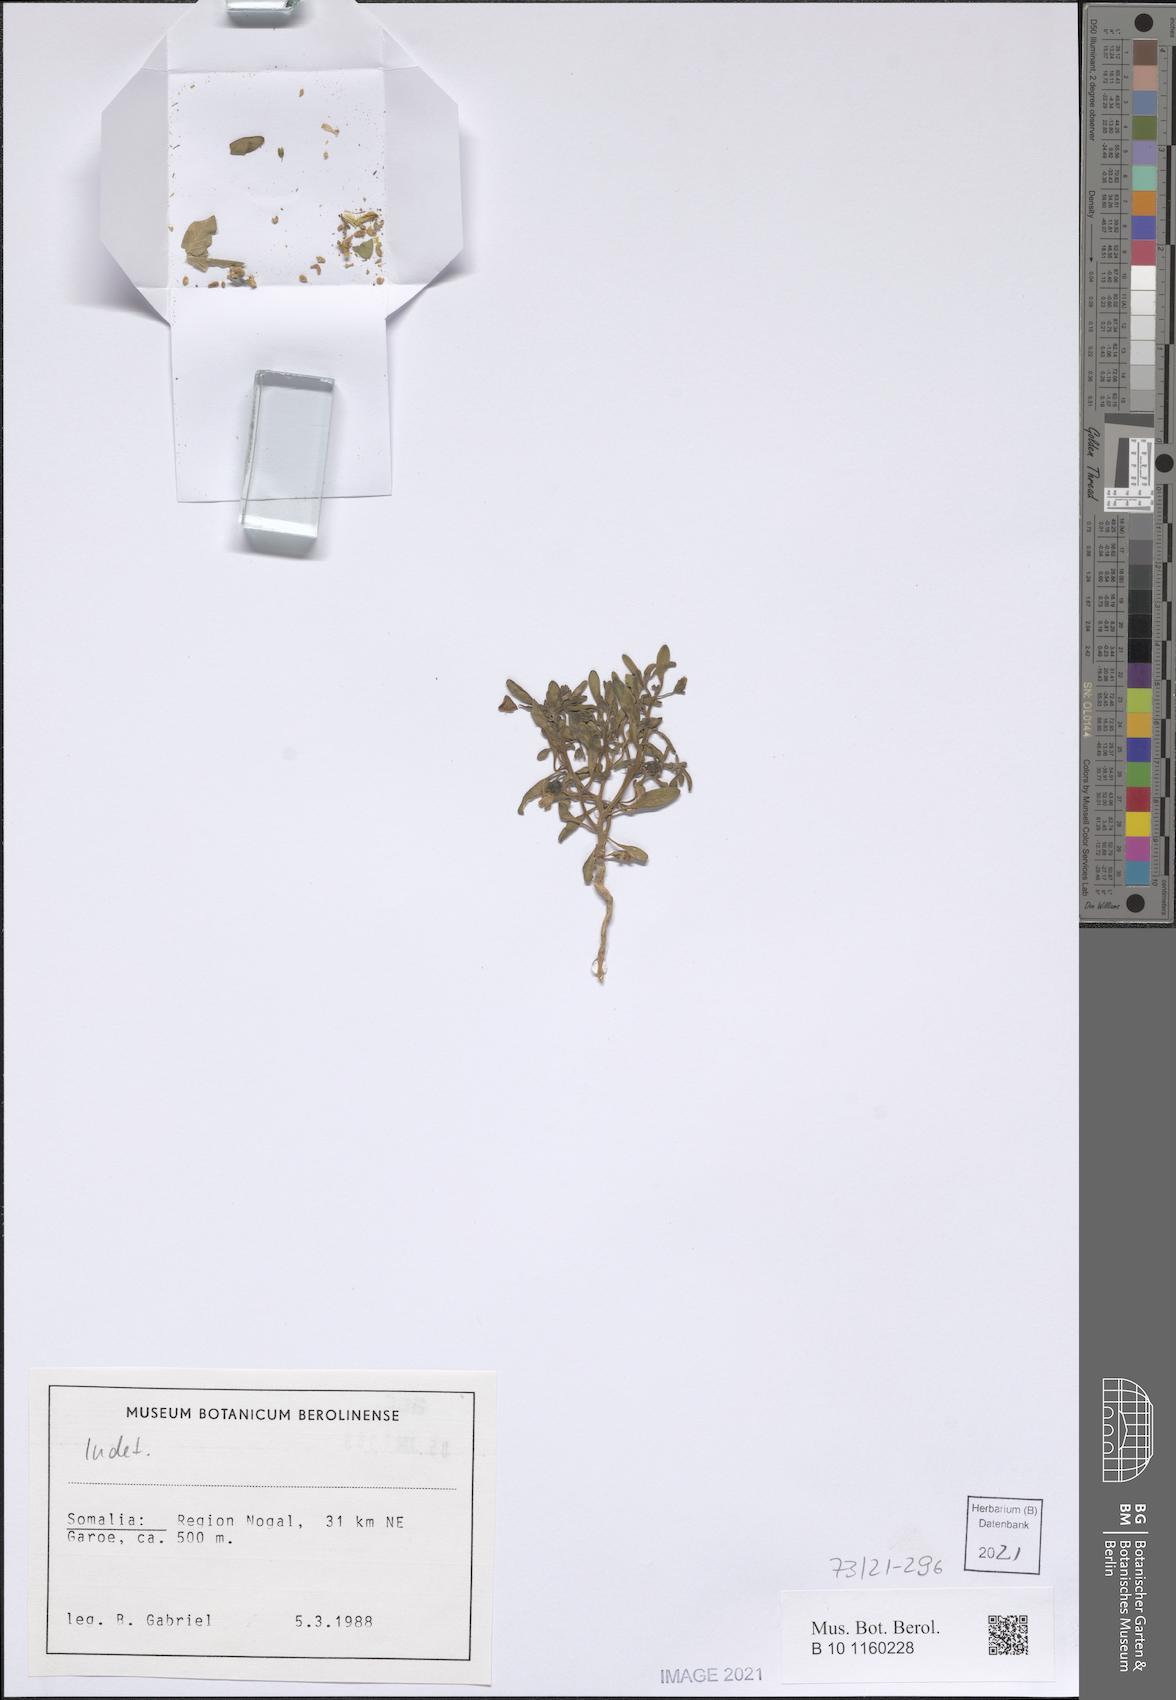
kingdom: Plantae
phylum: Tracheophyta
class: Magnoliopsida
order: Lamiales
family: Plantaginaceae
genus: Schweinfurthia
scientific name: Schweinfurthia pterosperma
